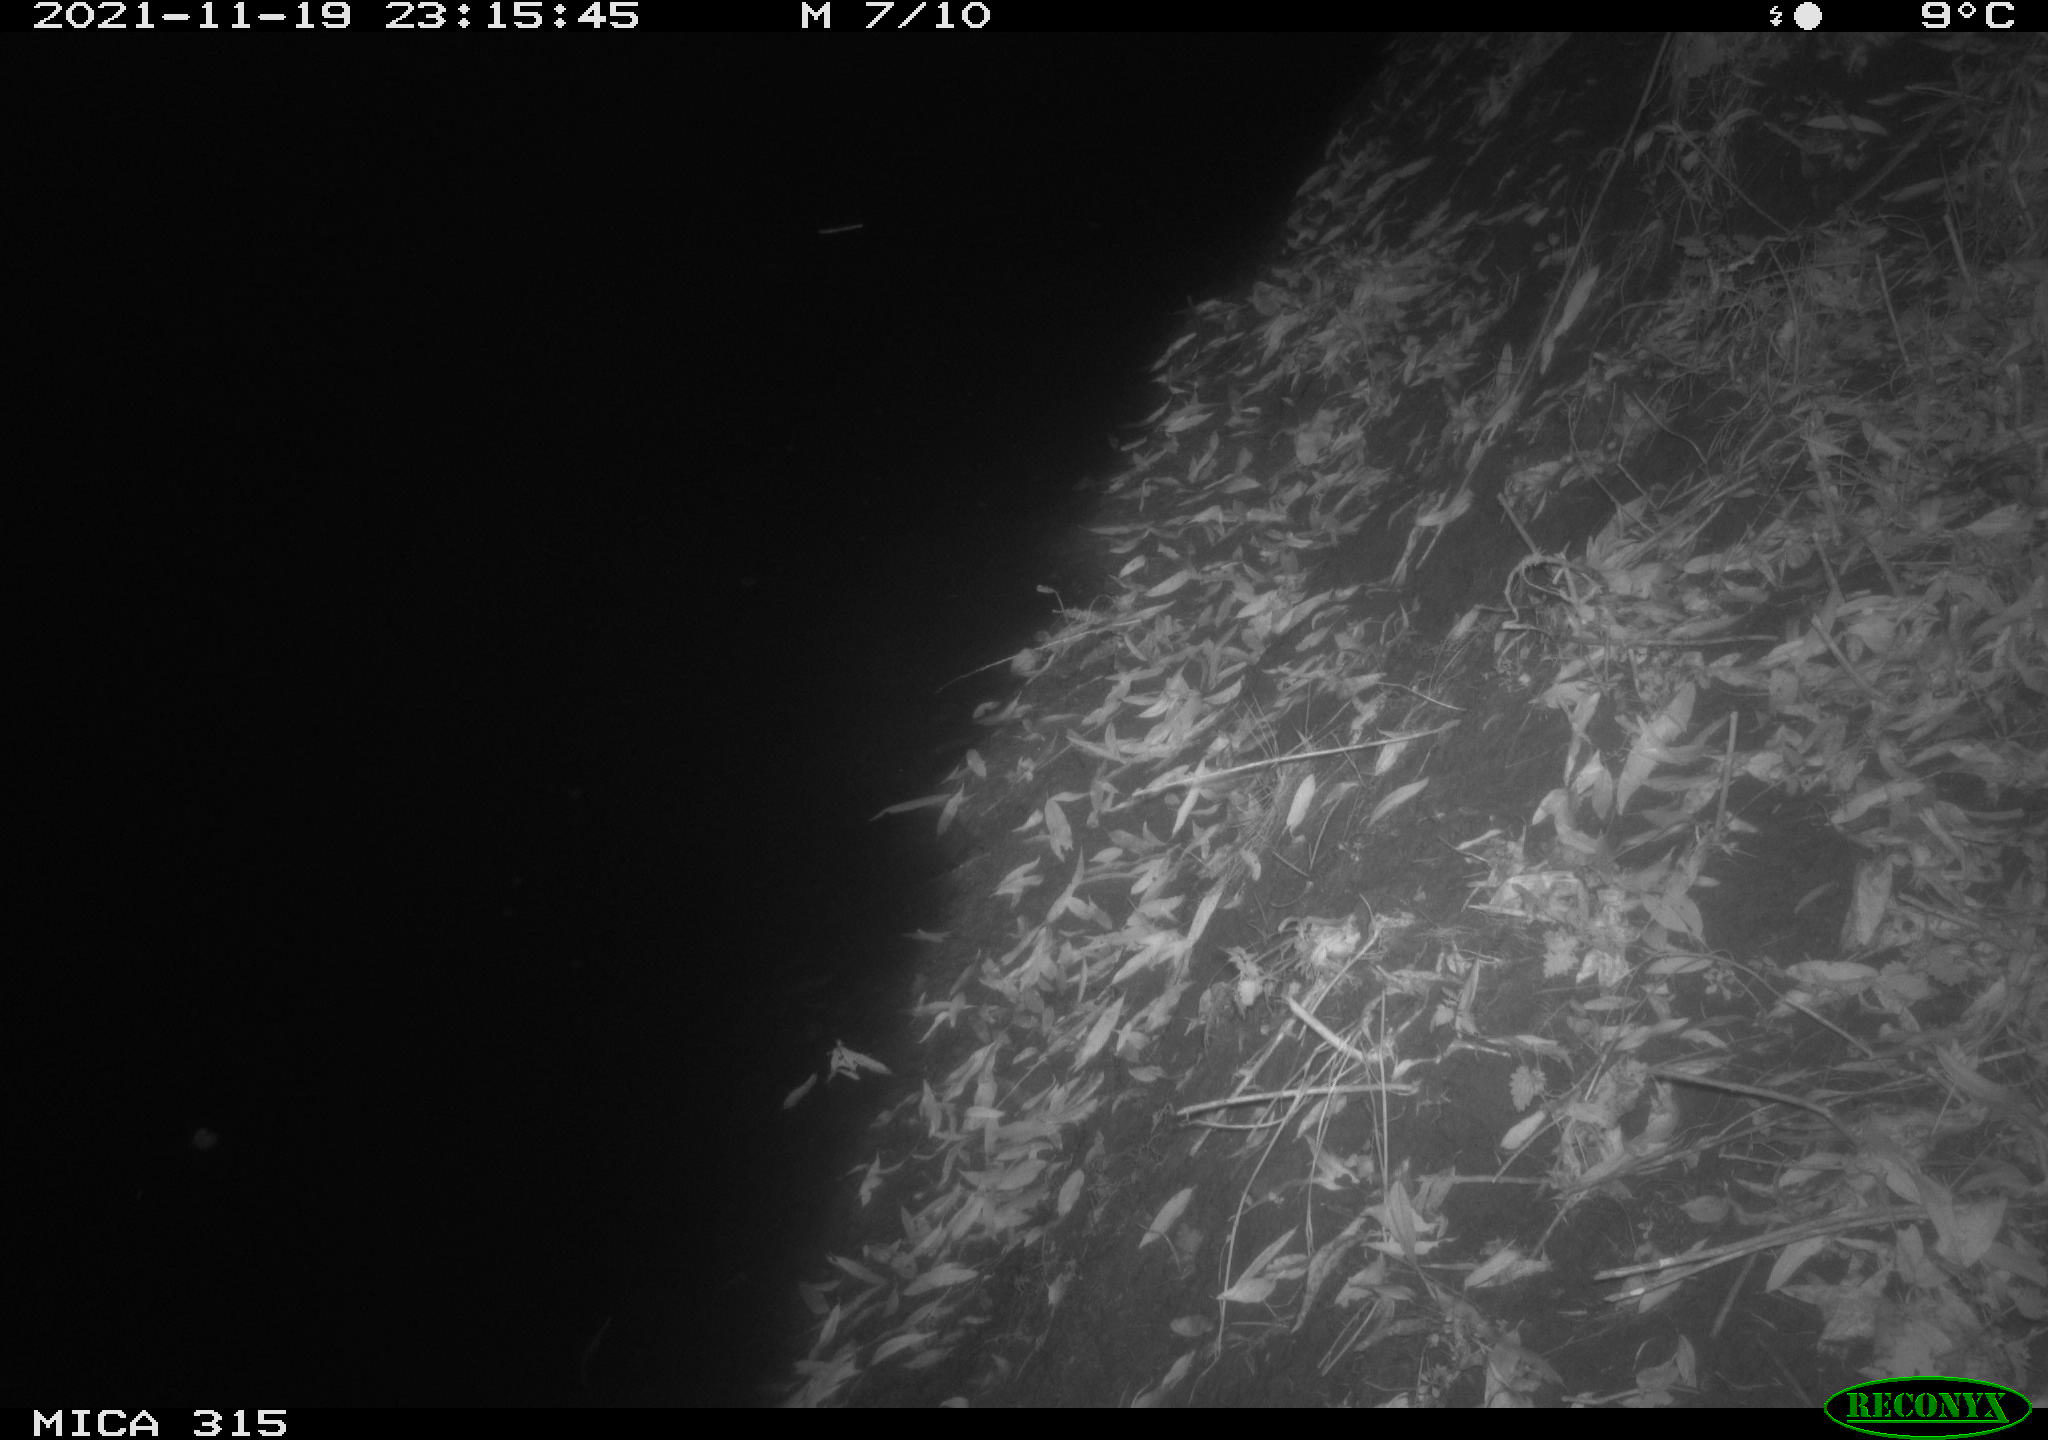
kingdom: Animalia
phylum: Chordata
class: Mammalia
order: Rodentia
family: Muridae
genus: Rattus
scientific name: Rattus norvegicus
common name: Brown rat
